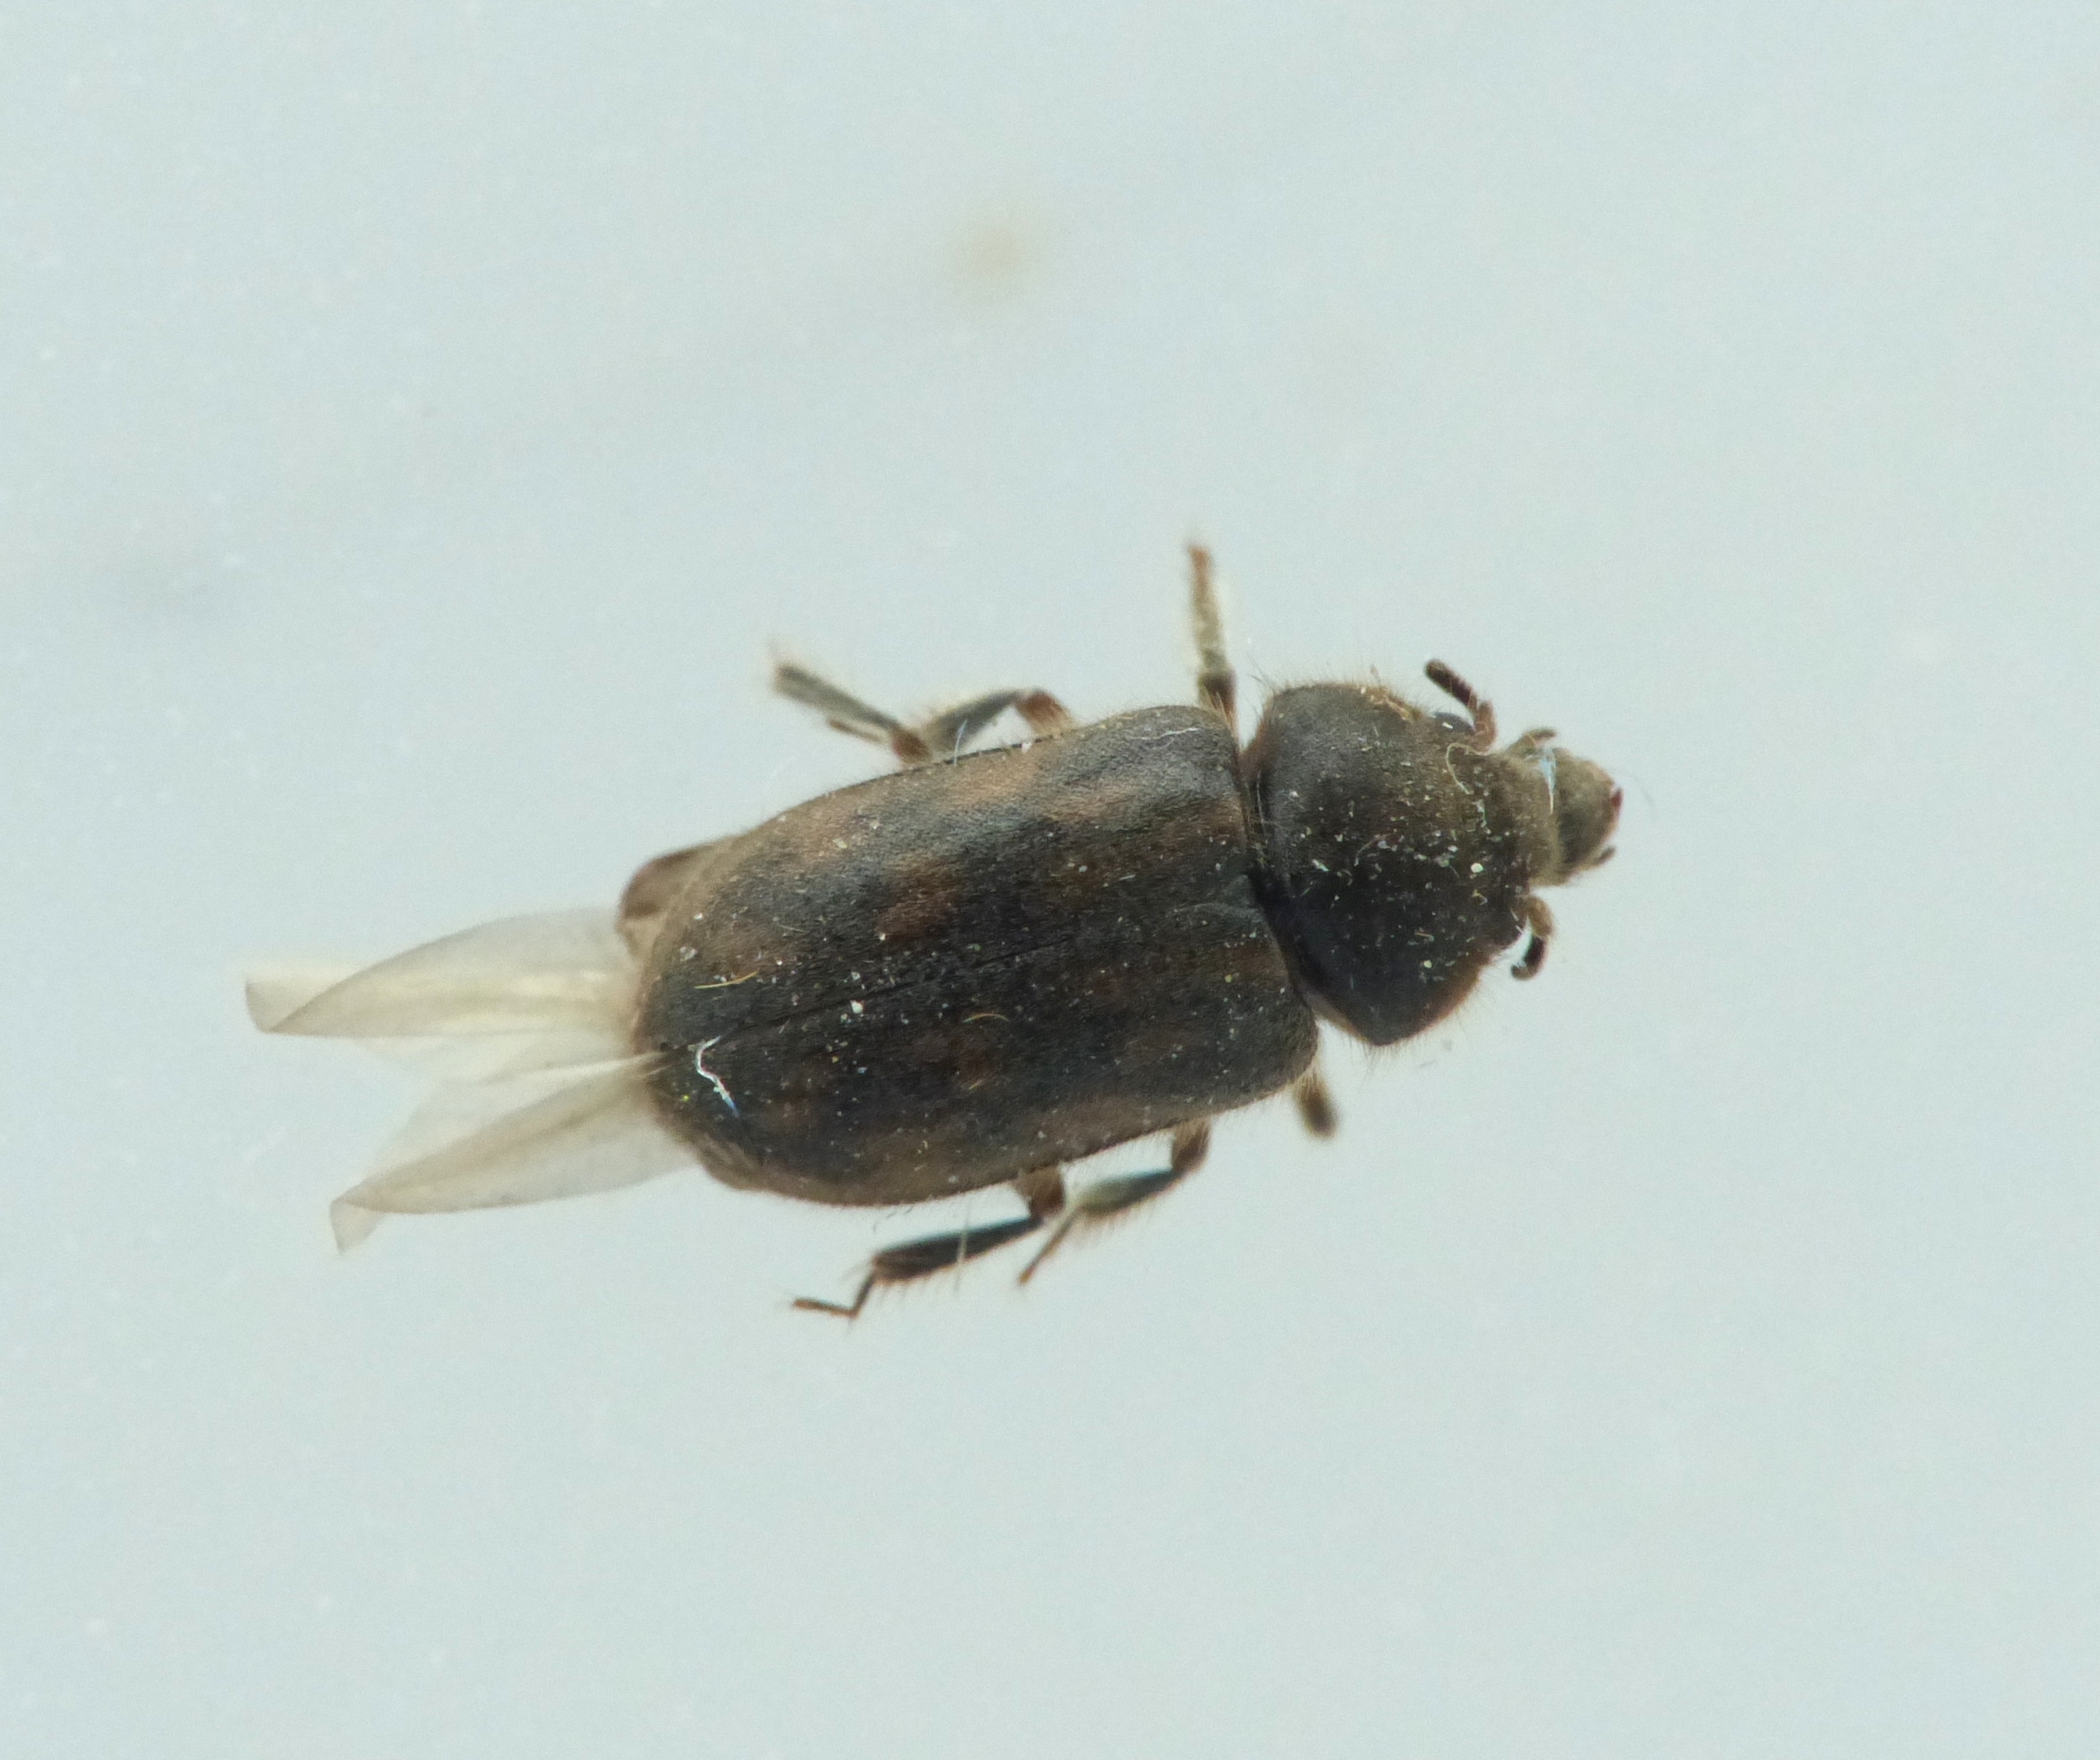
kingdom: Animalia
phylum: Arthropoda
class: Insecta
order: Coleoptera
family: Heteroceridae
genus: Heterocerus
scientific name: Heterocerus fenestratus
